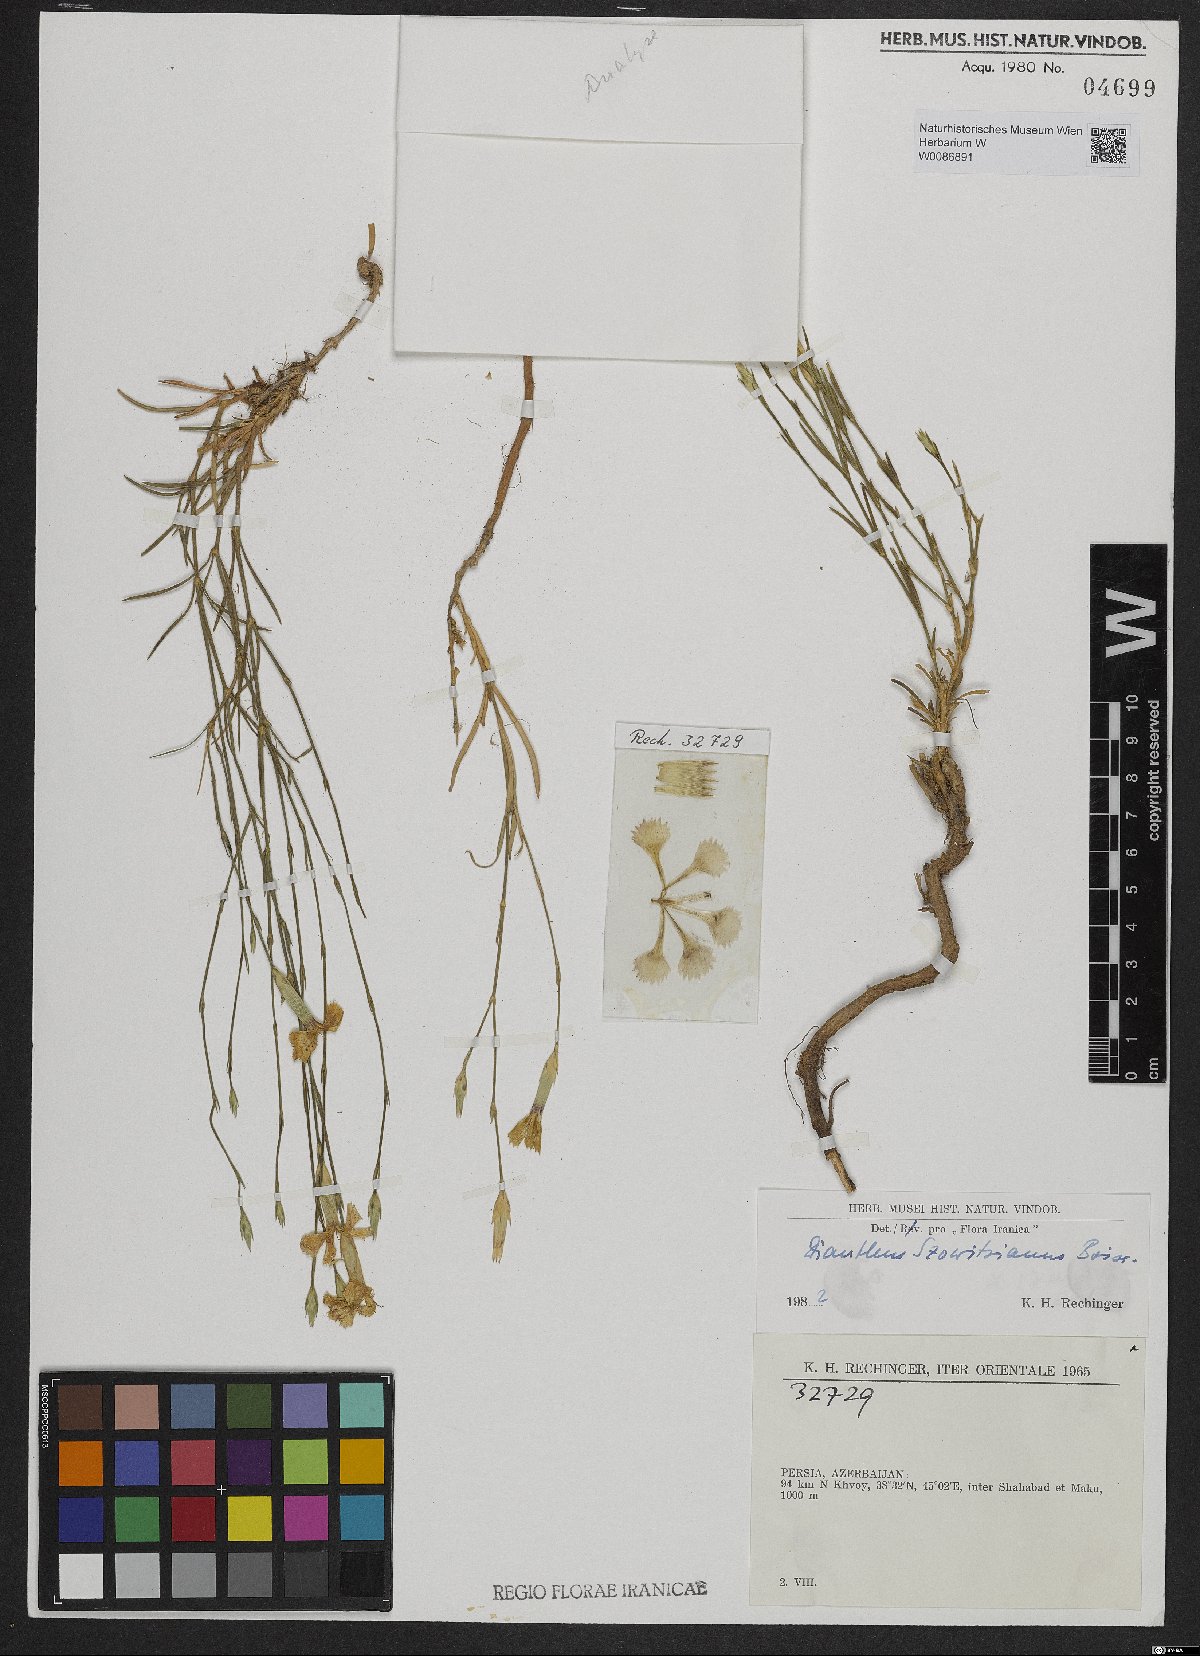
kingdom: Plantae
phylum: Tracheophyta
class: Magnoliopsida
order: Caryophyllales
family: Caryophyllaceae
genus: Dianthus
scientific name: Dianthus szowitsianus
